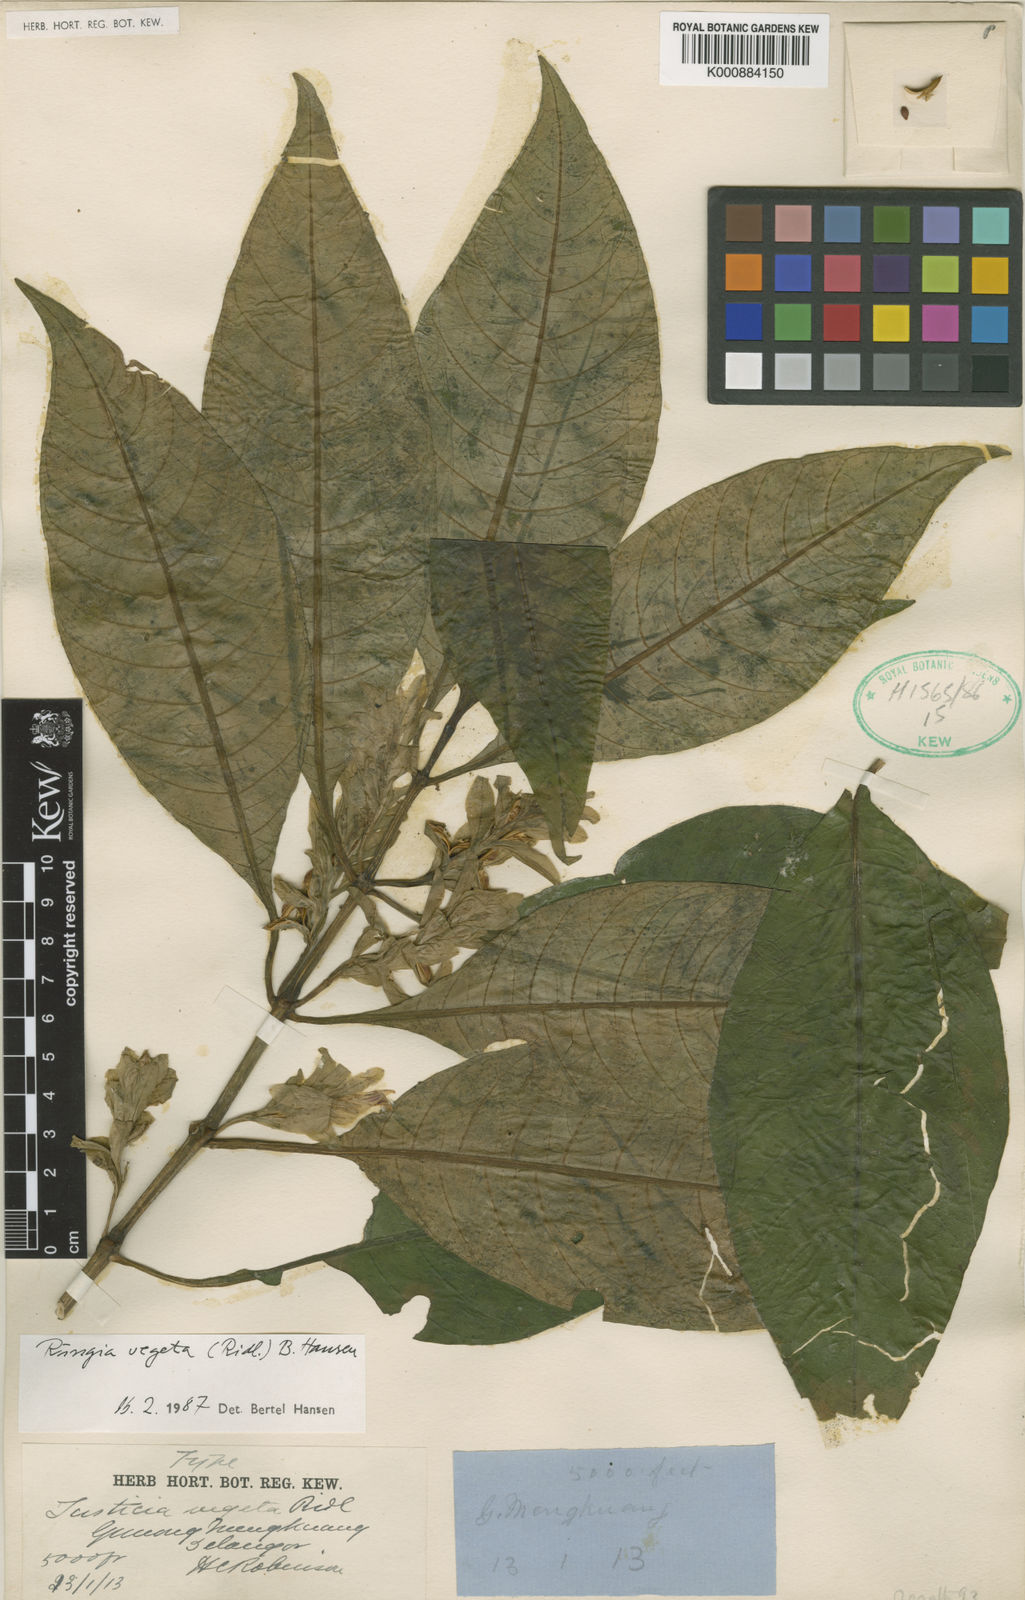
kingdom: Plantae
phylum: Tracheophyta
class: Magnoliopsida
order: Lamiales
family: Acanthaceae
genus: Justicia
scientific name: Justicia
